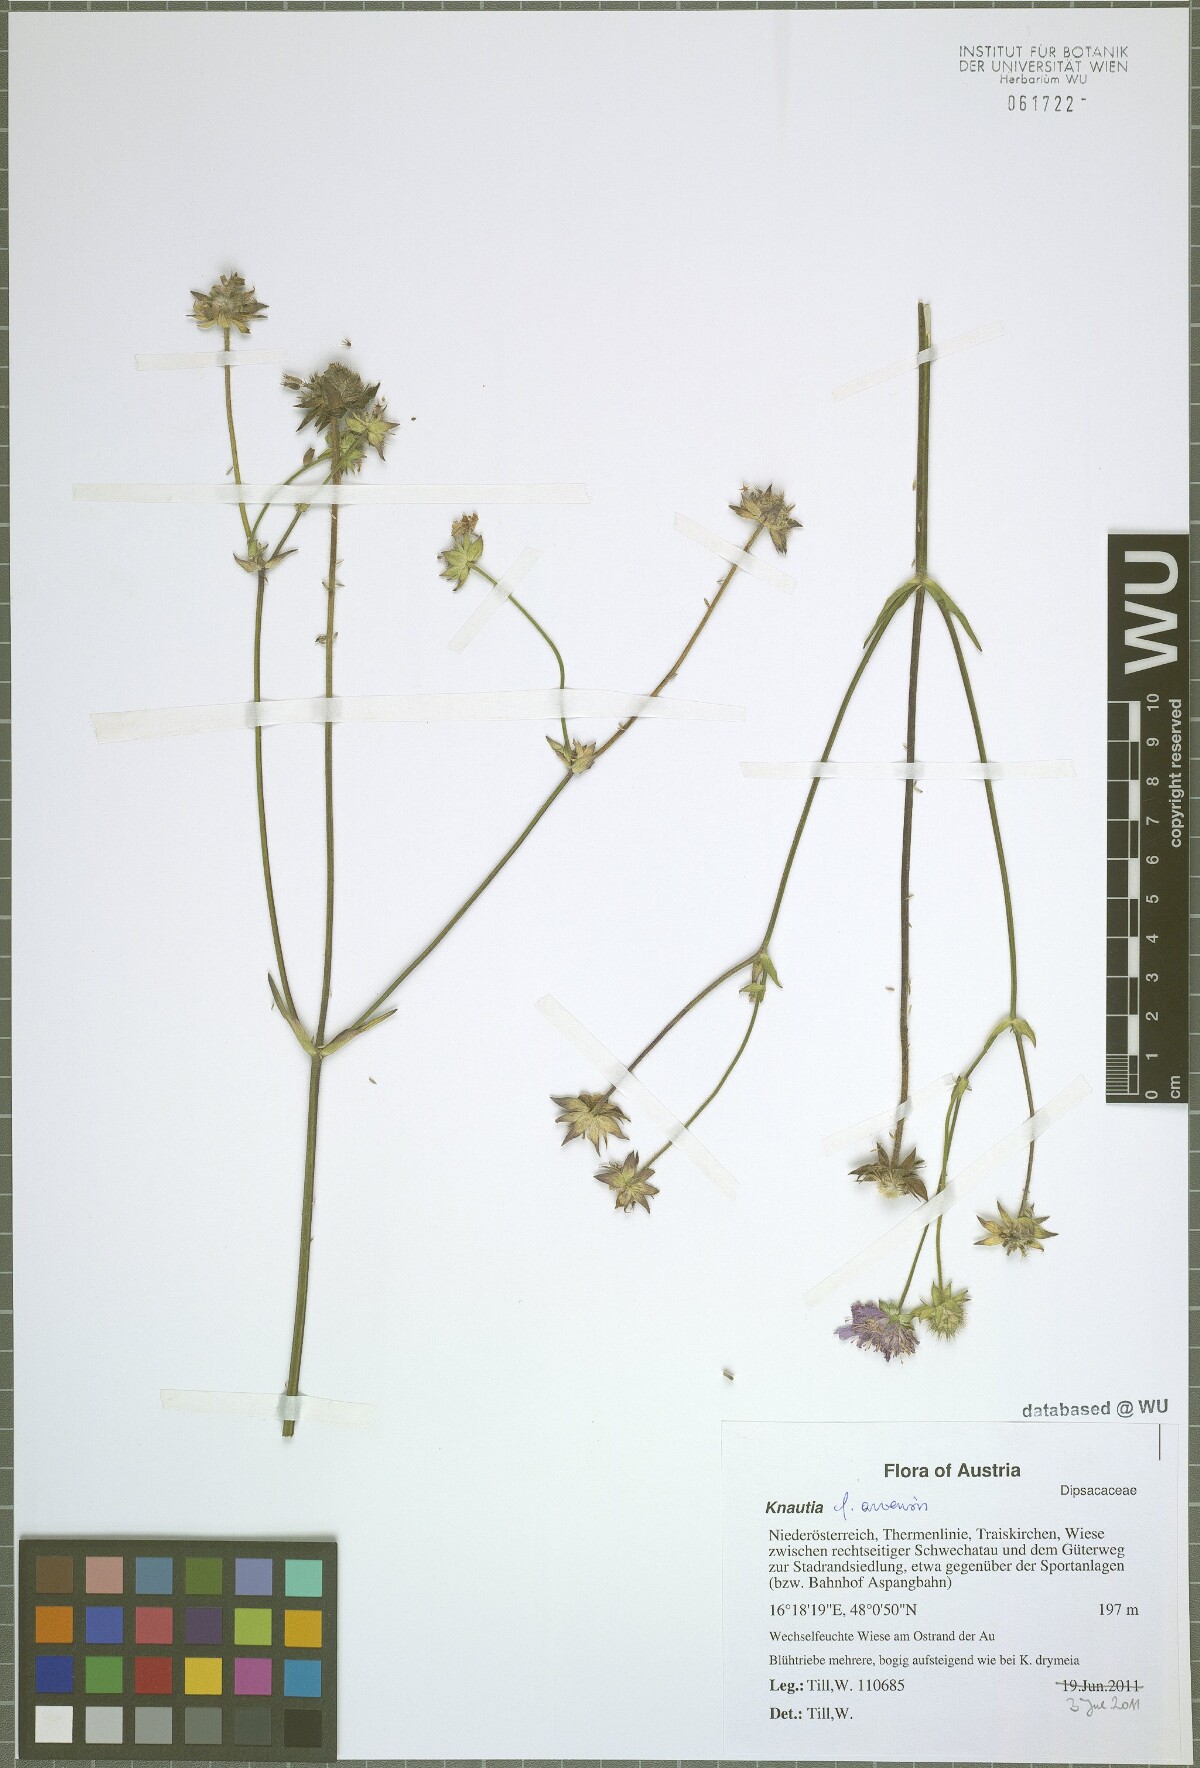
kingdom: Plantae
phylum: Tracheophyta
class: Magnoliopsida
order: Dipsacales
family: Caprifoliaceae
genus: Knautia
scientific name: Knautia arvensis
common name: Field scabiosa
